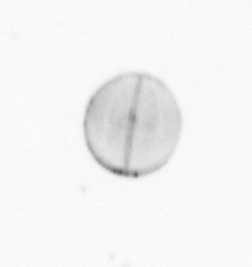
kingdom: Chromista
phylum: Ochrophyta
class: Bacillariophyceae
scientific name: Bacillariophyceae
